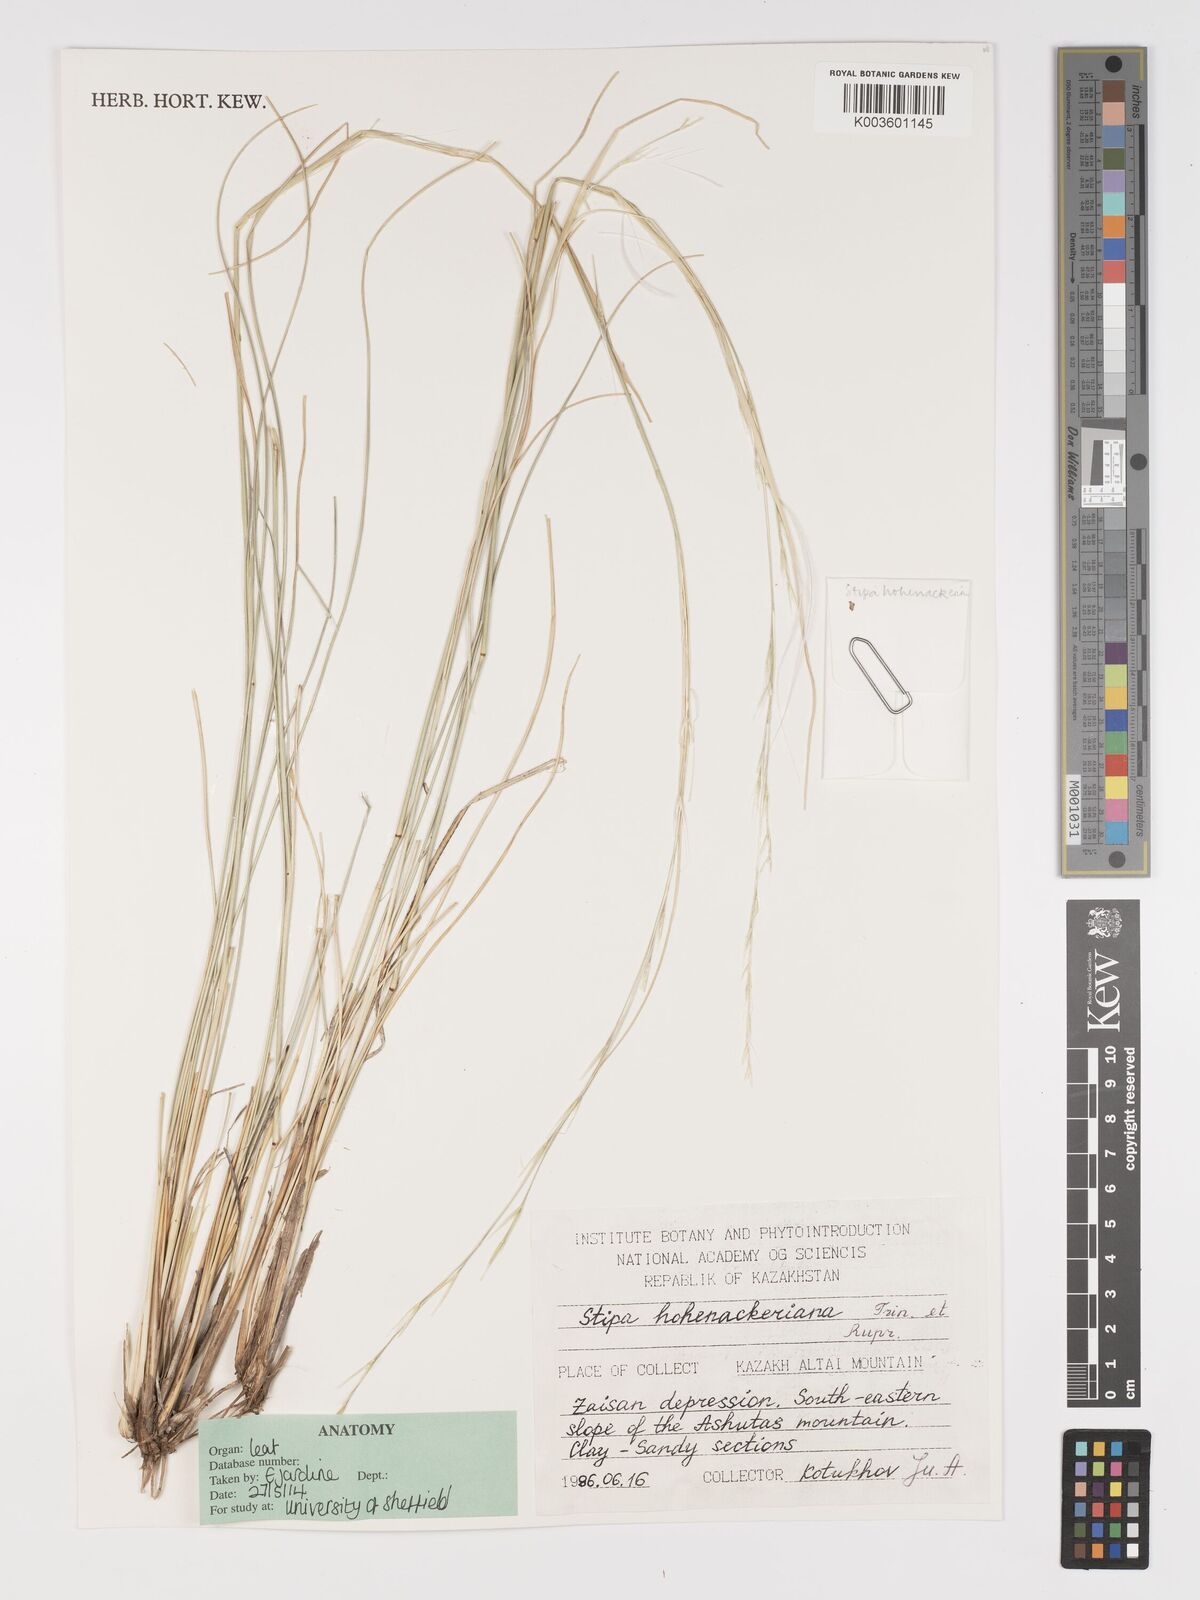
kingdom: Plantae
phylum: Tracheophyta
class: Liliopsida
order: Poales
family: Poaceae
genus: Stipa
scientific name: Stipa hohenackeriana
